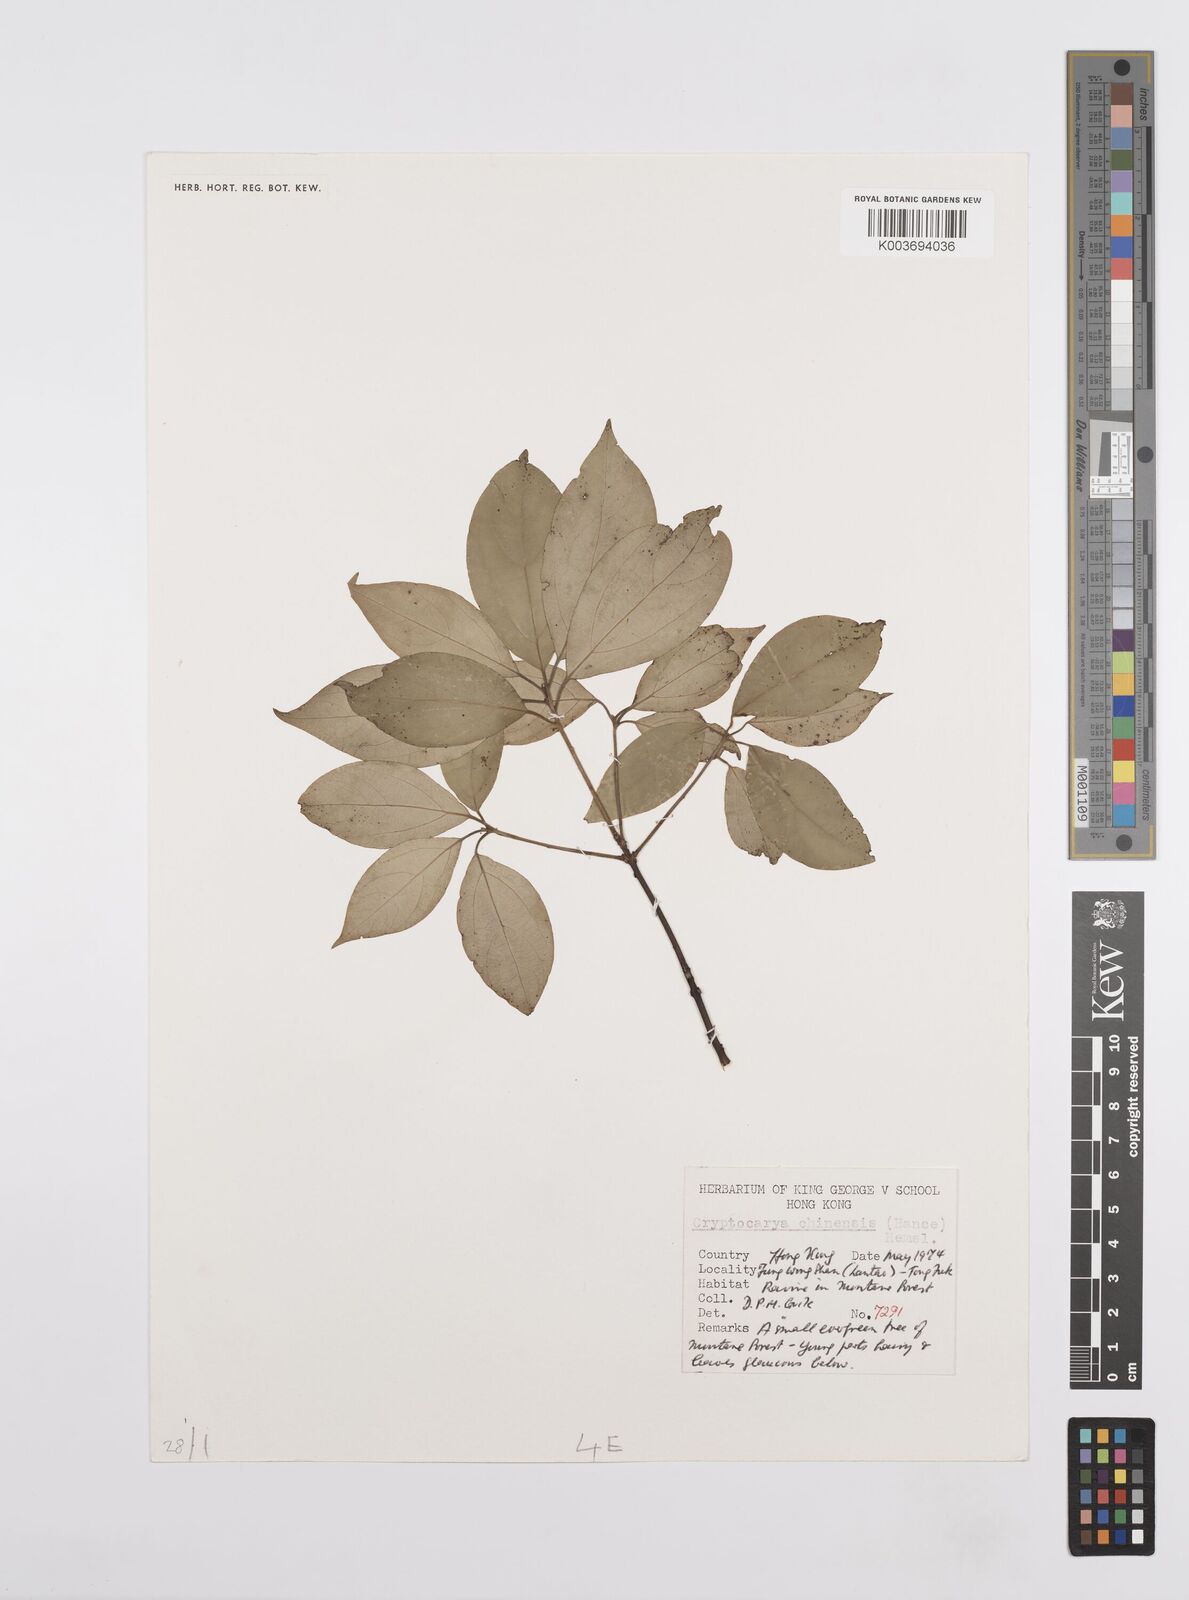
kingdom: Plantae
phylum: Tracheophyta
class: Magnoliopsida
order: Laurales
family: Lauraceae
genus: Cryptocarya
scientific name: Cryptocarya chinensis
